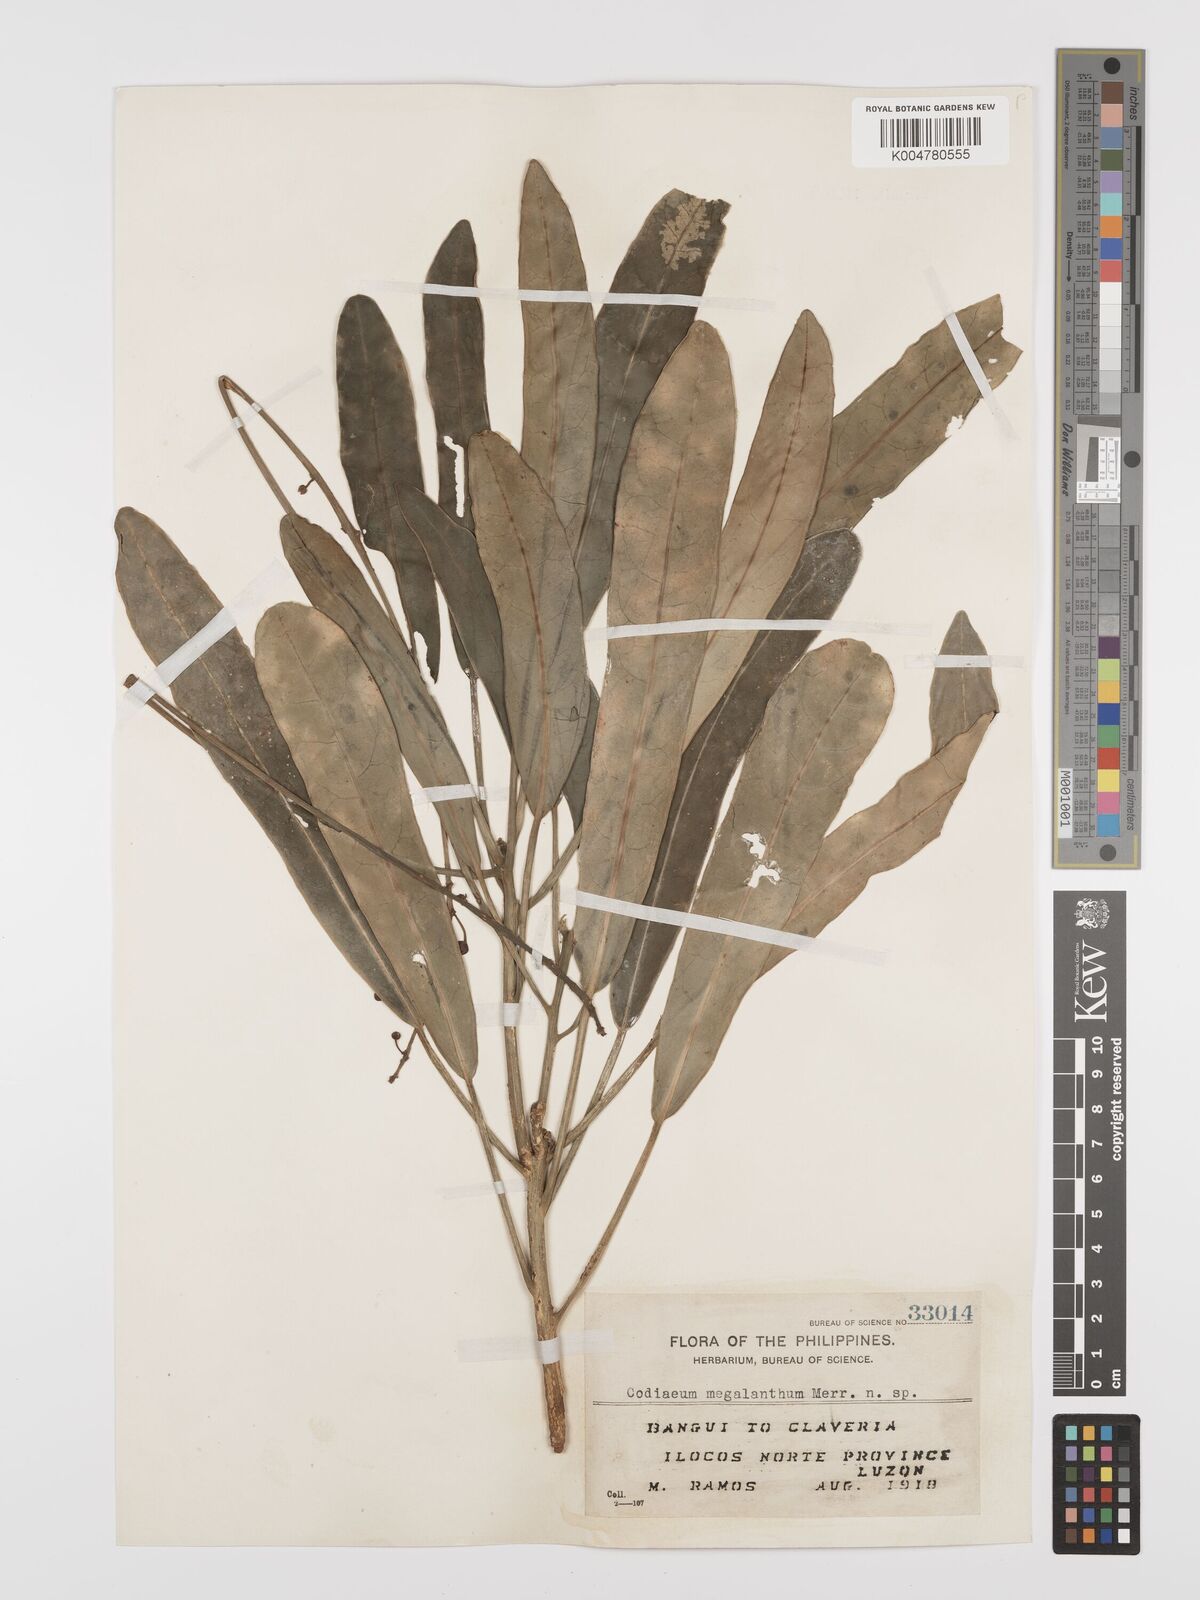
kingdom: Plantae
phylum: Tracheophyta
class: Magnoliopsida
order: Malpighiales
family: Euphorbiaceae
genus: Codiaeum
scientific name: Codiaeum megalanthum
